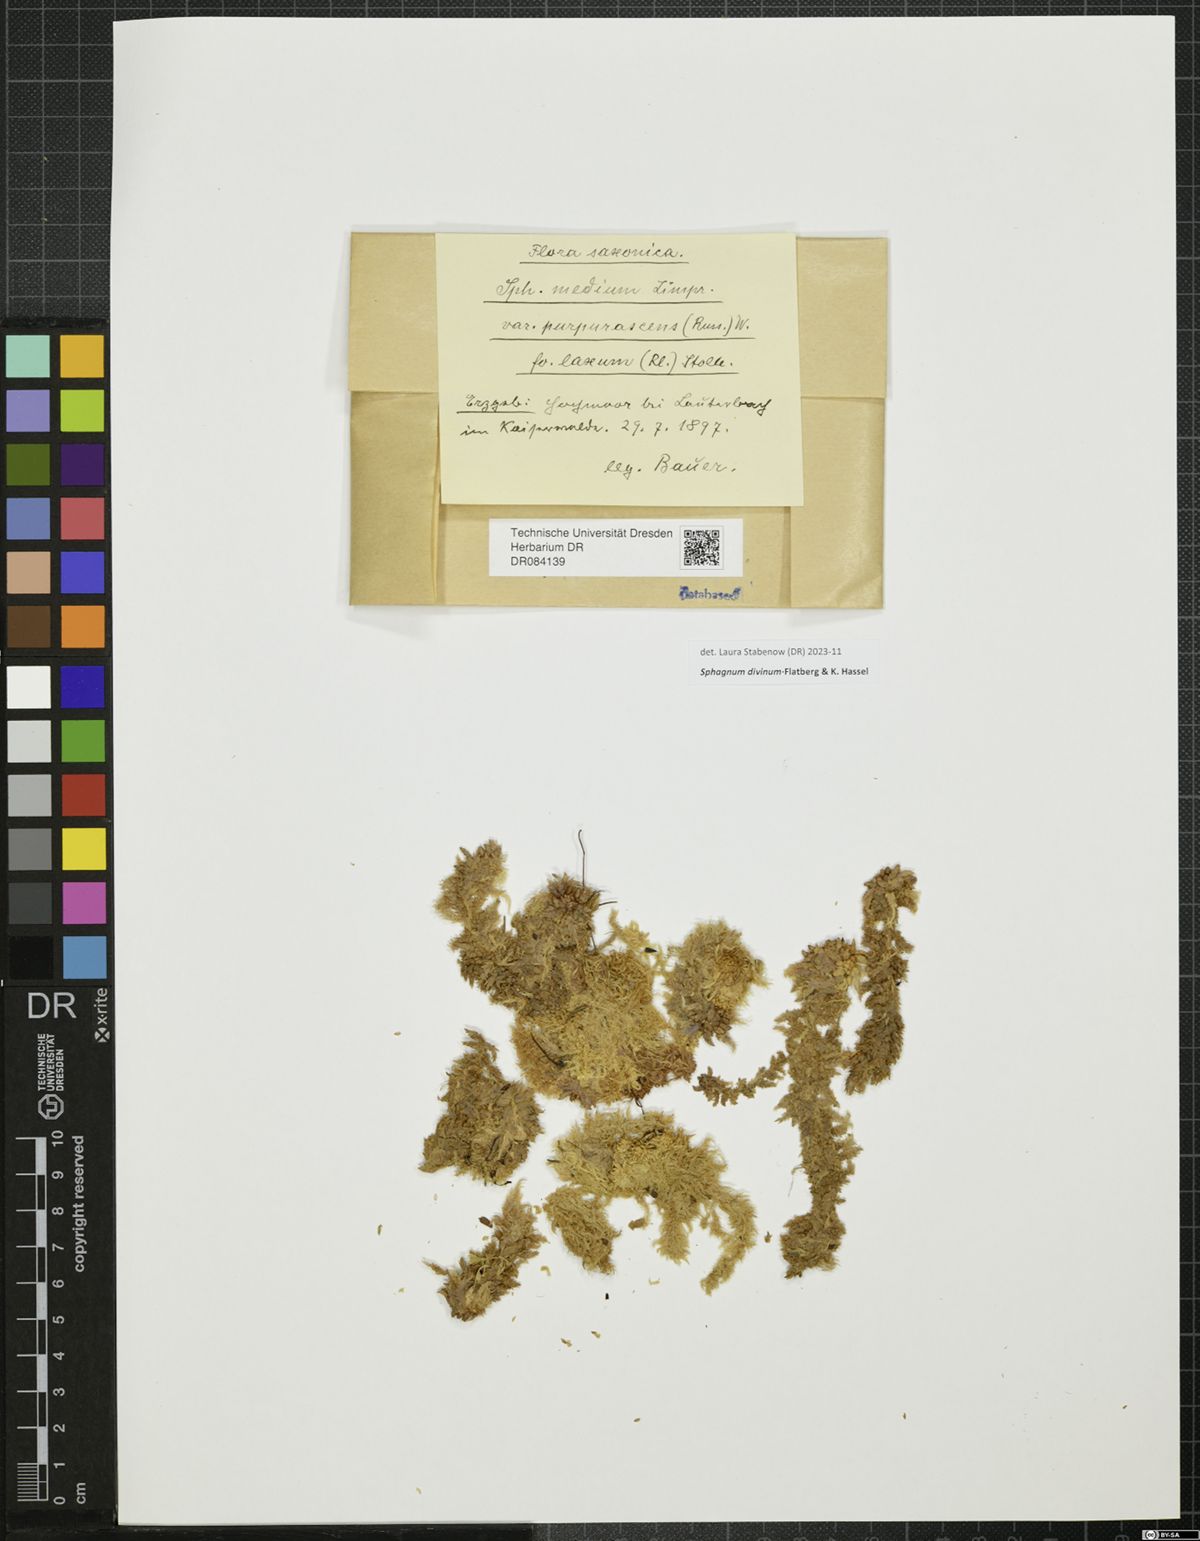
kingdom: Plantae
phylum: Bryophyta
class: Sphagnopsida
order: Sphagnales
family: Sphagnaceae
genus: Sphagnum
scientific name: Sphagnum divinum
